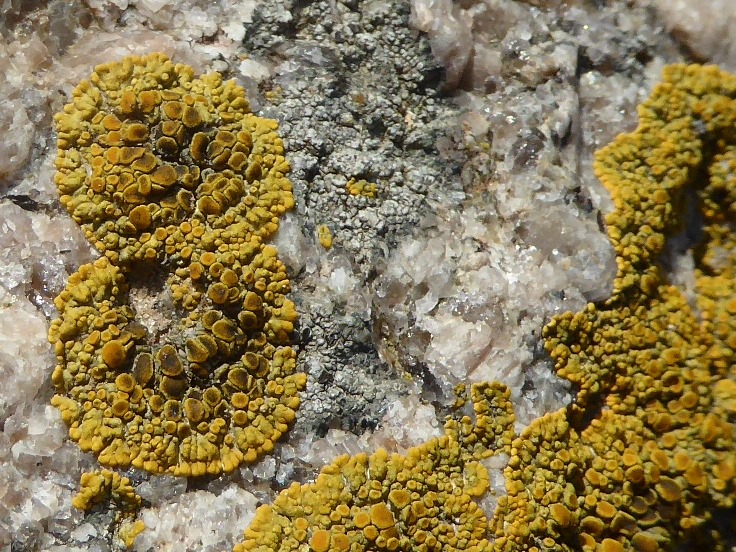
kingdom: Fungi
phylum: Ascomycota
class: Lecanoromycetes
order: Teloschistales
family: Teloschistaceae
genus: Variospora
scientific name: Variospora flavescens
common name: kalk-orangelav
